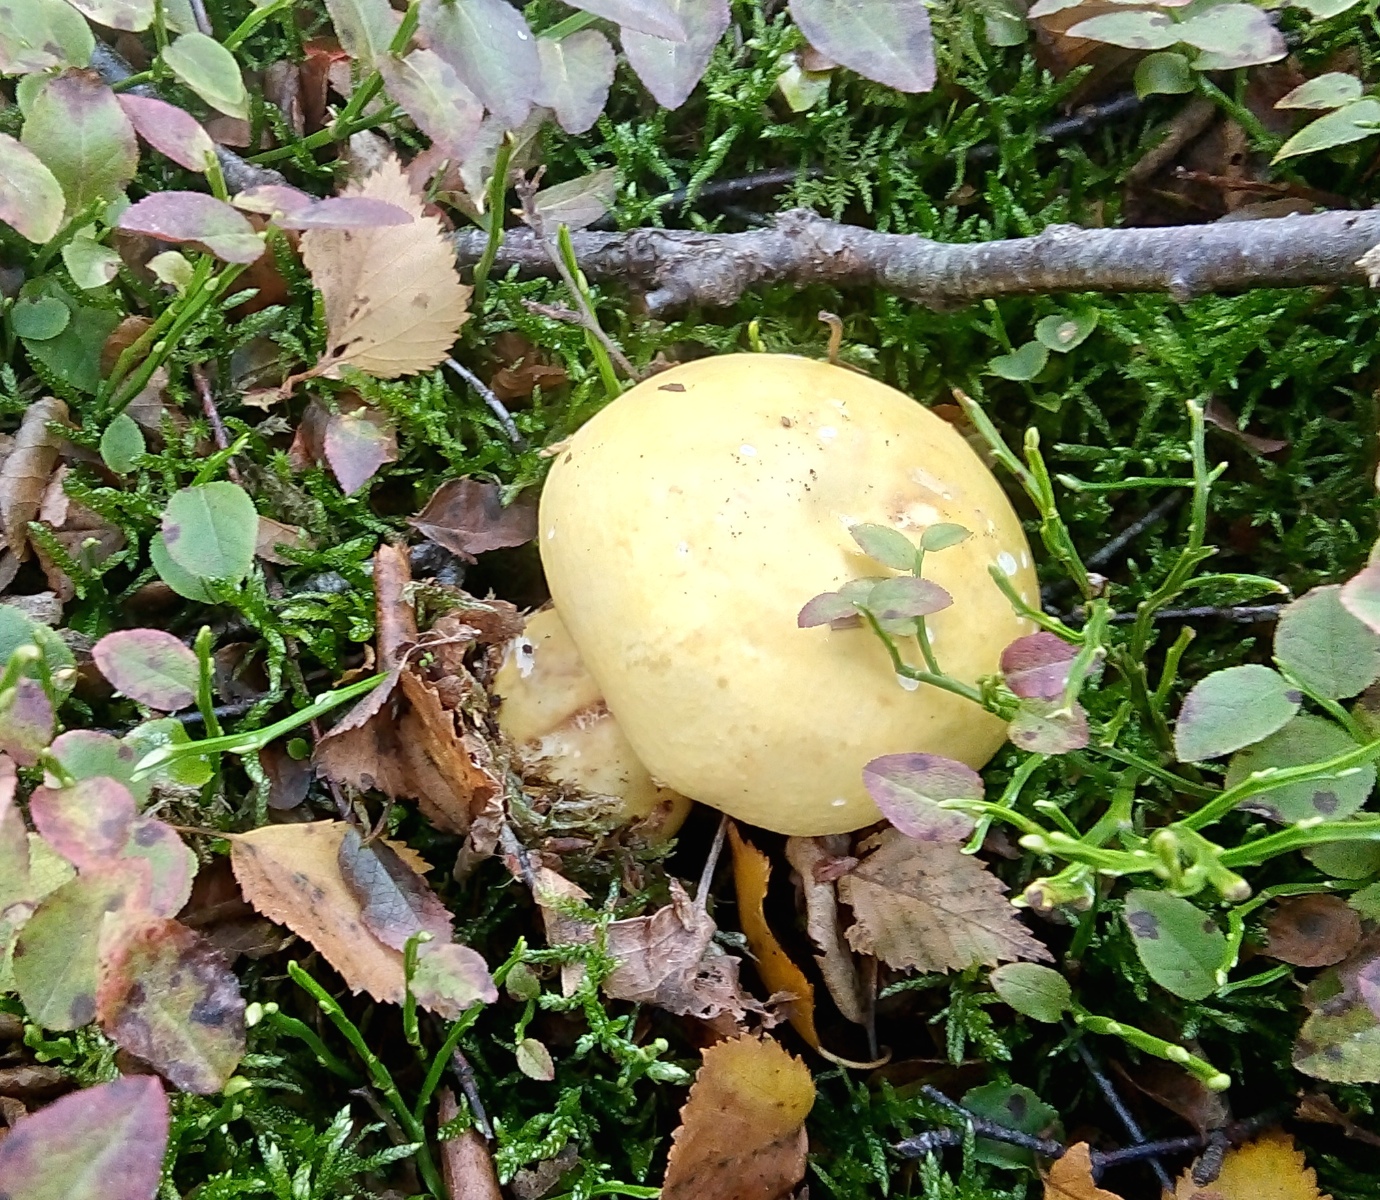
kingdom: Fungi
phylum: Basidiomycota
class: Agaricomycetes
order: Russulales
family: Russulaceae
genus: Russula
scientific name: Russula claroflava
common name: birke-skørhat
